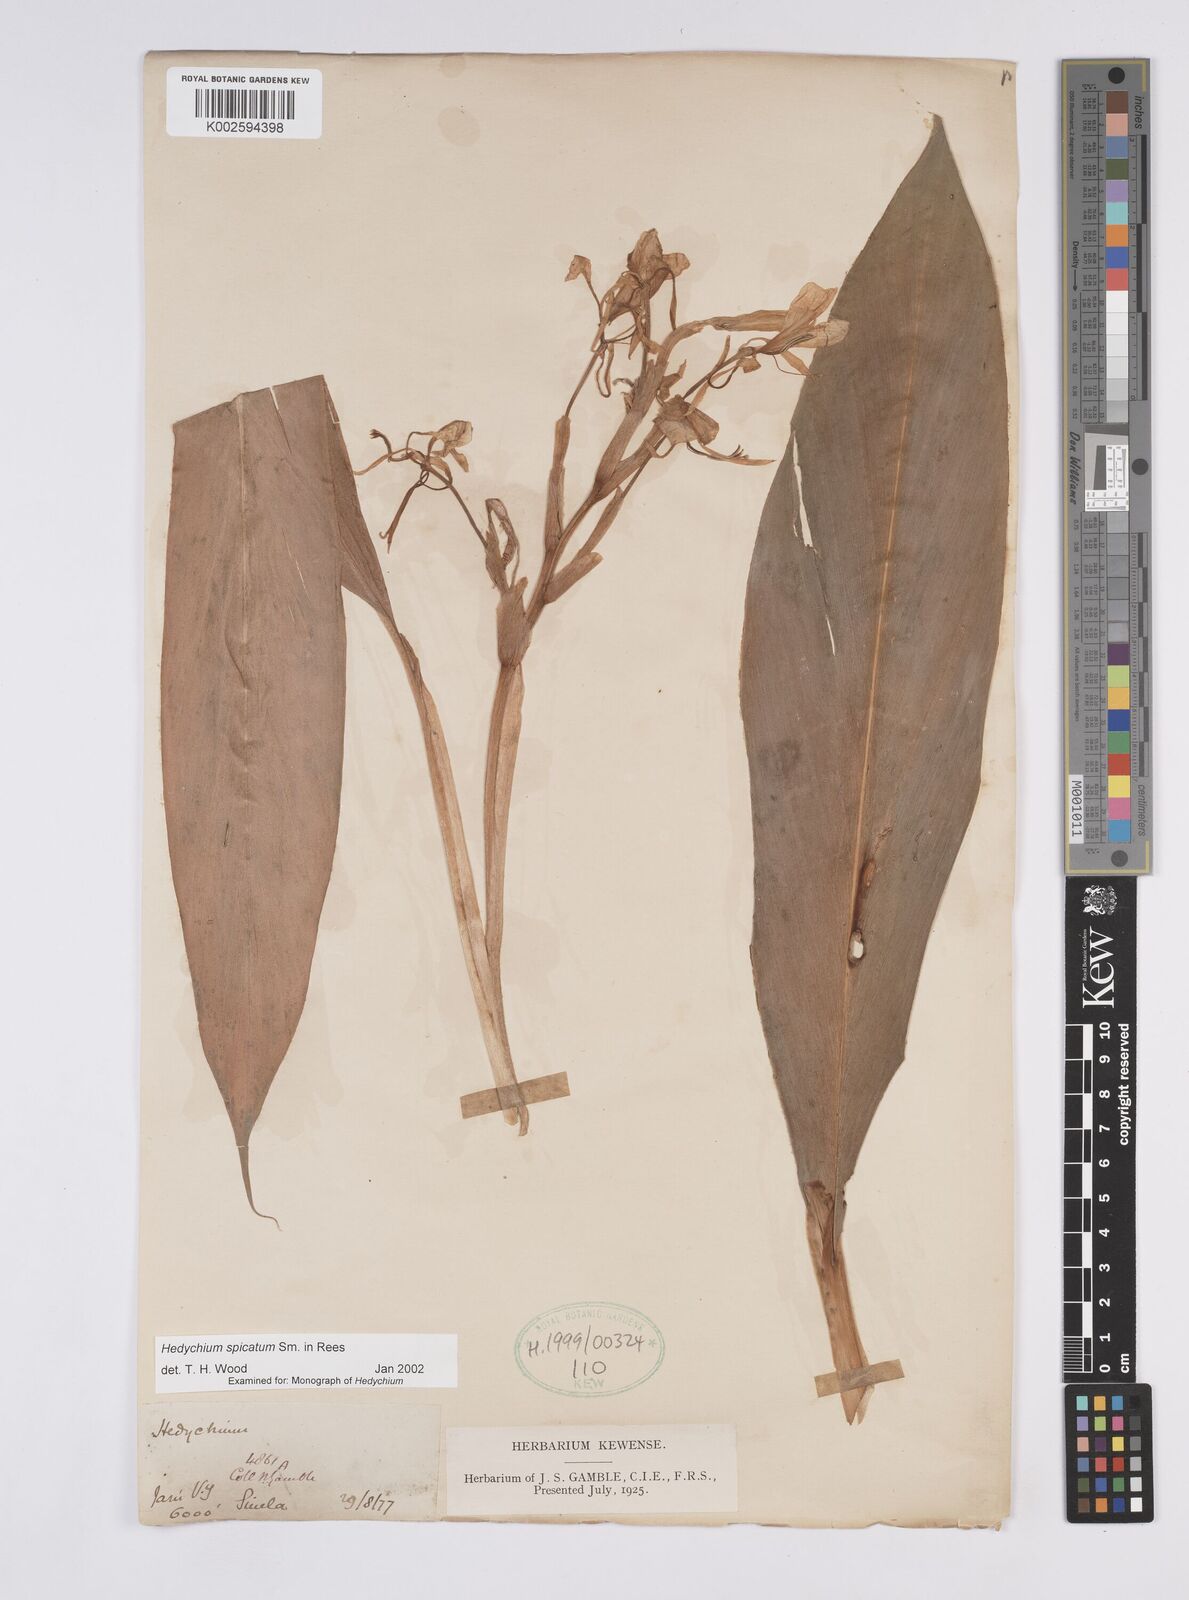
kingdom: Plantae
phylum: Tracheophyta
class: Liliopsida
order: Zingiberales
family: Zingiberaceae
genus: Hedychium
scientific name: Hedychium spicatum
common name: Spiked ginger-lily
